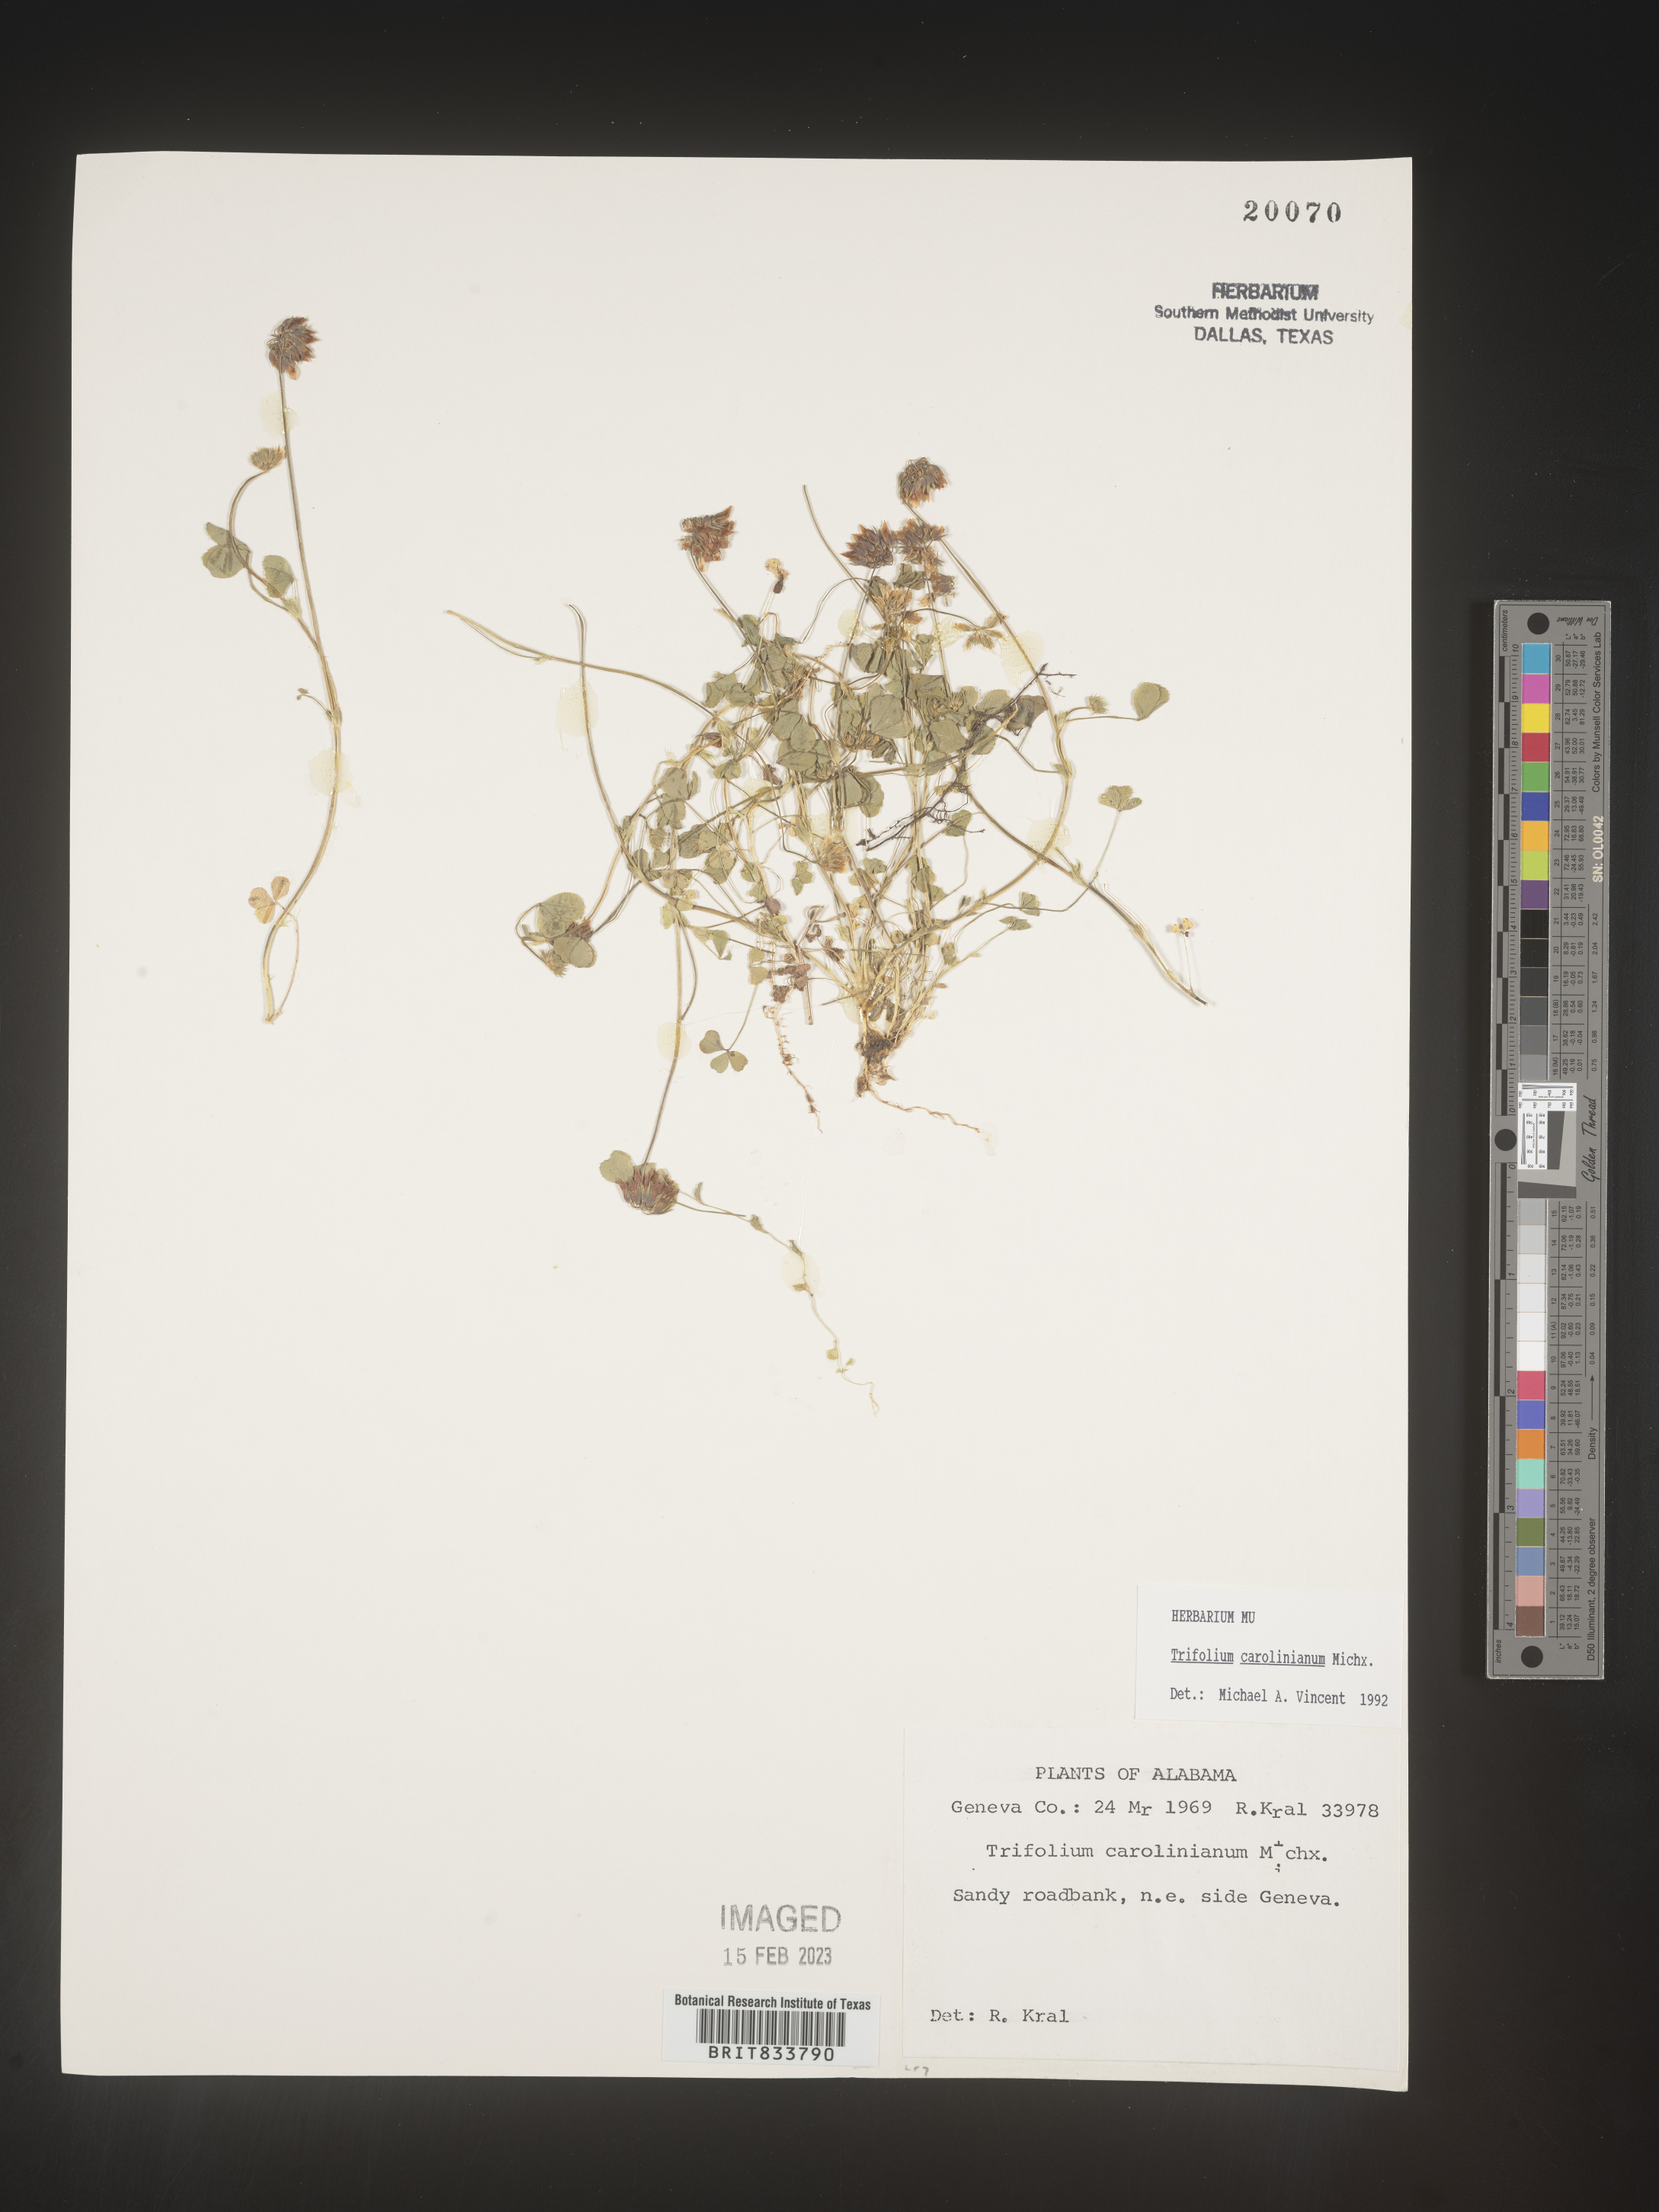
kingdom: Plantae
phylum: Tracheophyta
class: Magnoliopsida
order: Fabales
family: Fabaceae
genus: Trifolium
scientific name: Trifolium carolinianum
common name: Wild white clover
